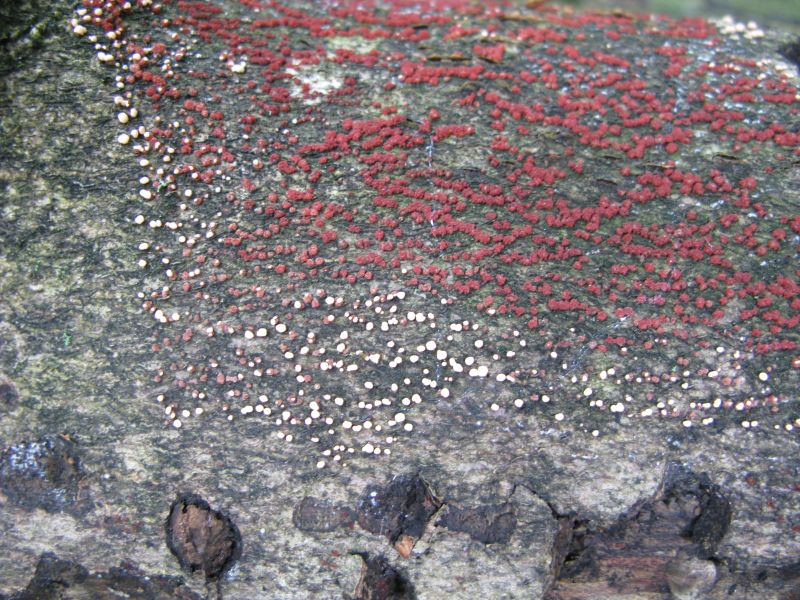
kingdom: Fungi
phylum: Ascomycota
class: Sordariomycetes
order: Hypocreales
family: Nectriaceae
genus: Nectria
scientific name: Nectria cinnabarina
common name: almindelig cinnobersvamp
